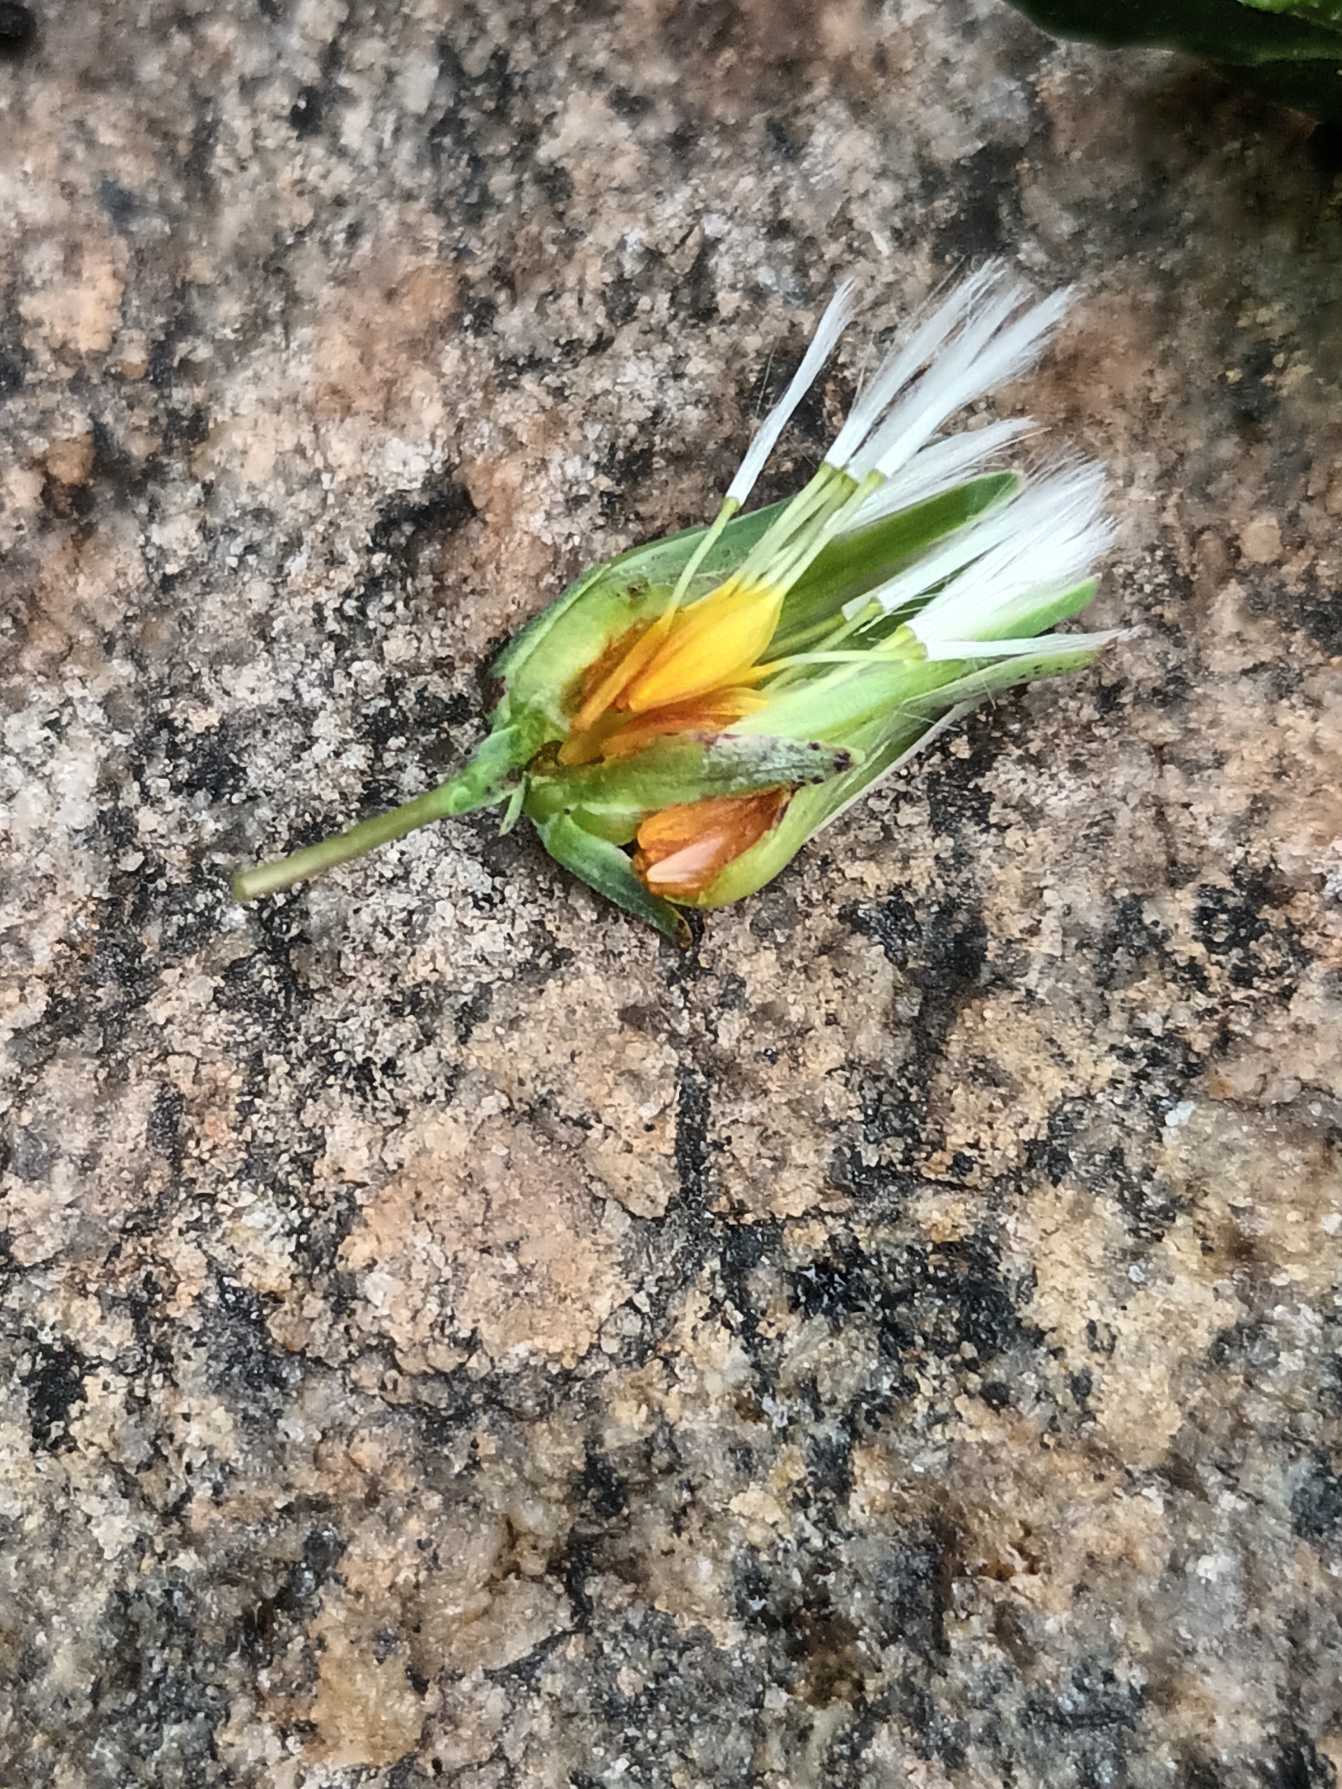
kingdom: Plantae
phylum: Tracheophyta
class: Magnoliopsida
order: Asterales
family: Asteraceae
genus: Lactuca
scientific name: Lactuca virosa
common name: Gift-salat
